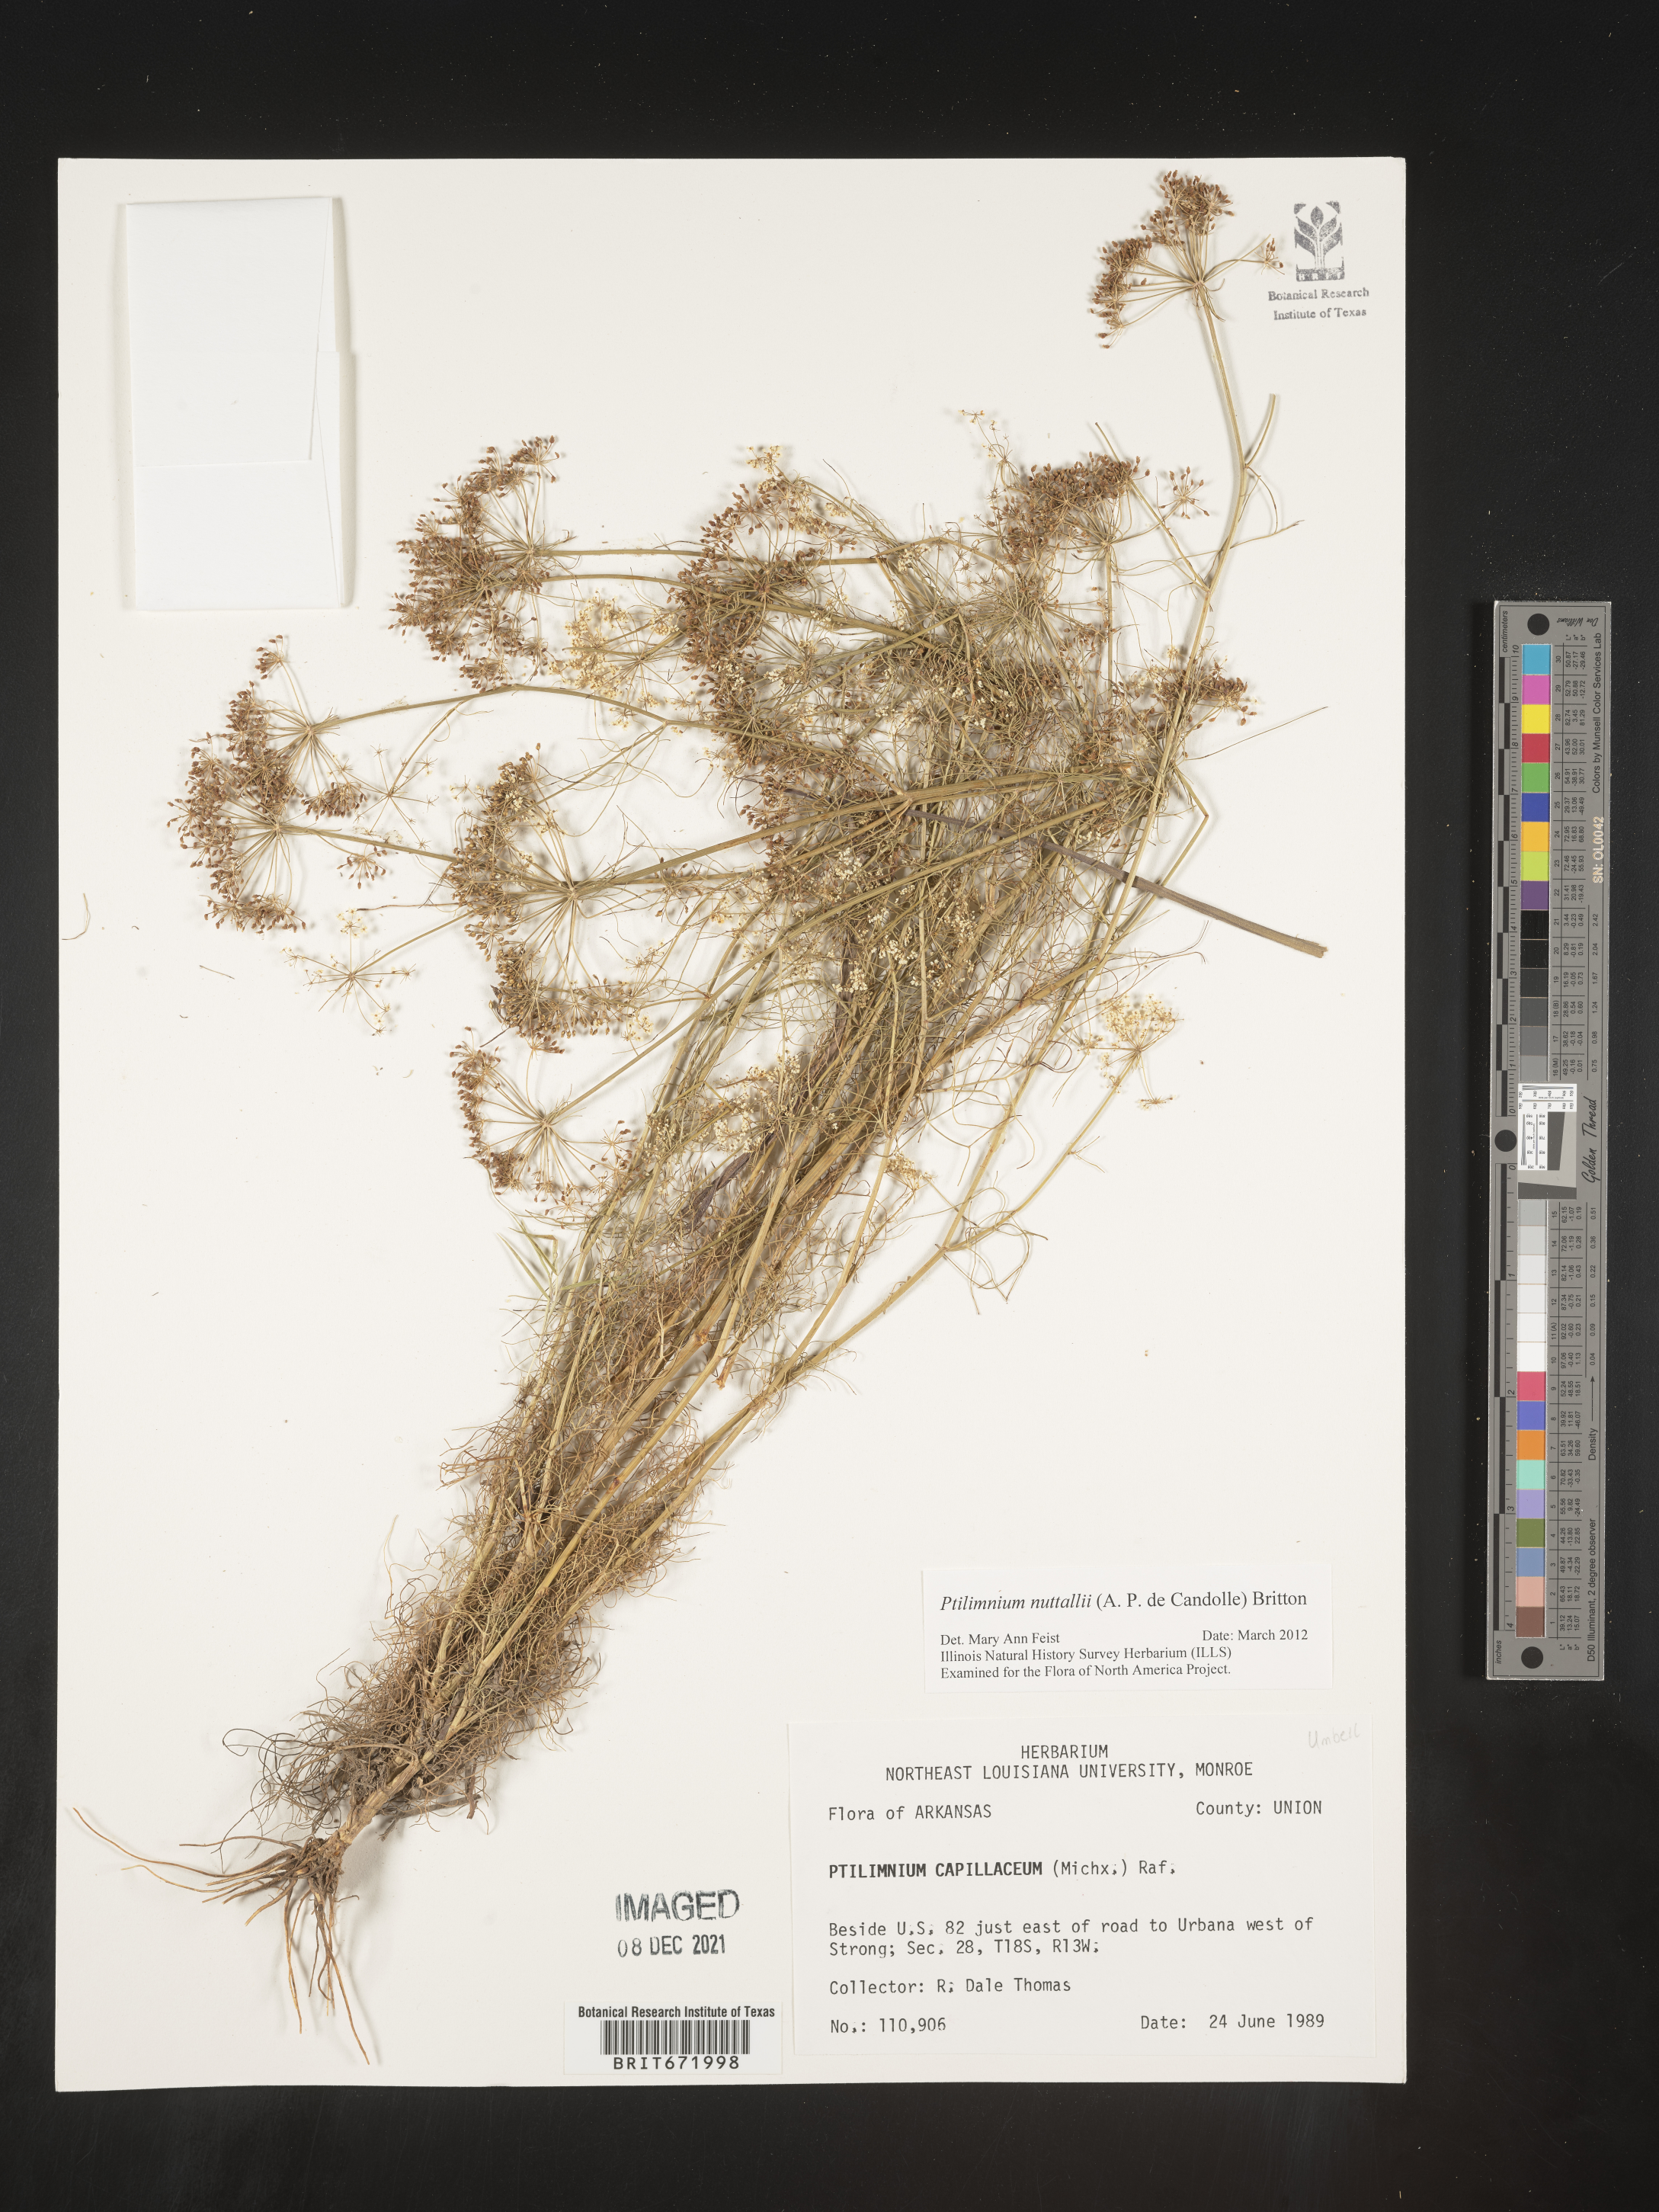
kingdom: Plantae
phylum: Tracheophyta
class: Magnoliopsida
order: Apiales
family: Apiaceae
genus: Ptilimnium
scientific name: Ptilimnium capillaceum
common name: Herbwilliam
